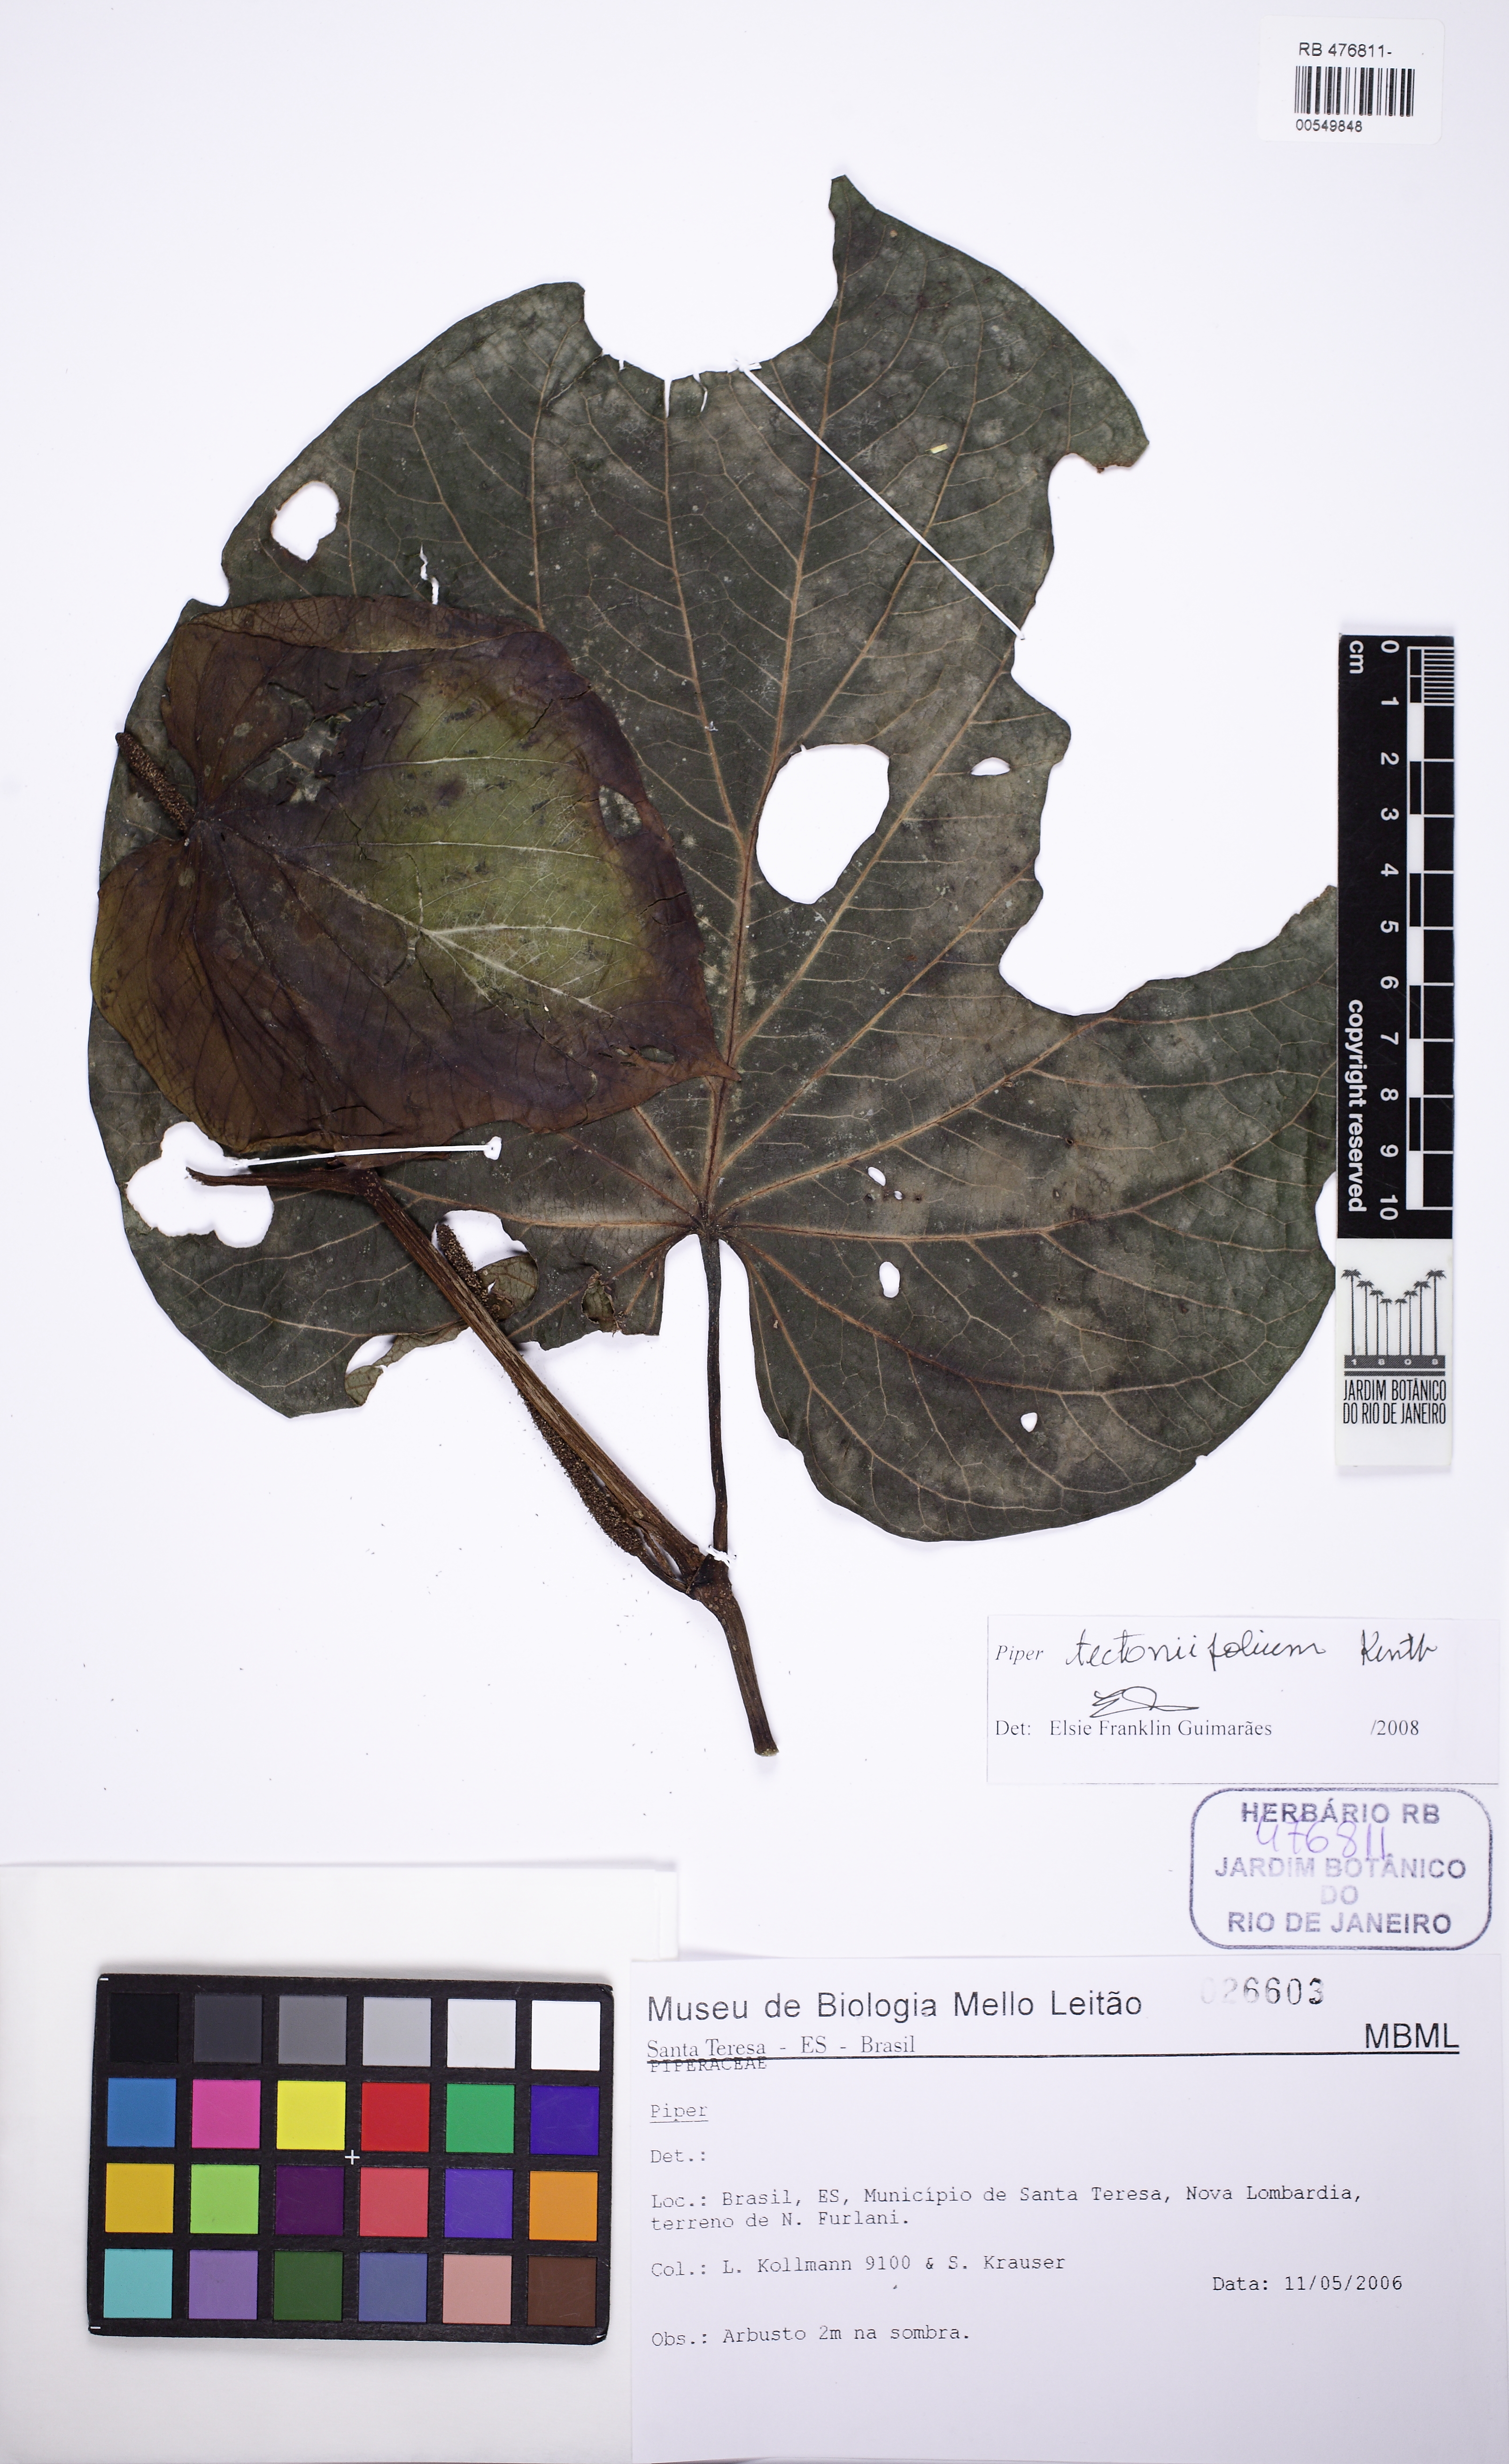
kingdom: Plantae
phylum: Tracheophyta
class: Magnoliopsida
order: Piperales
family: Piperaceae
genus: Piper
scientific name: Piper tectoniifolium
